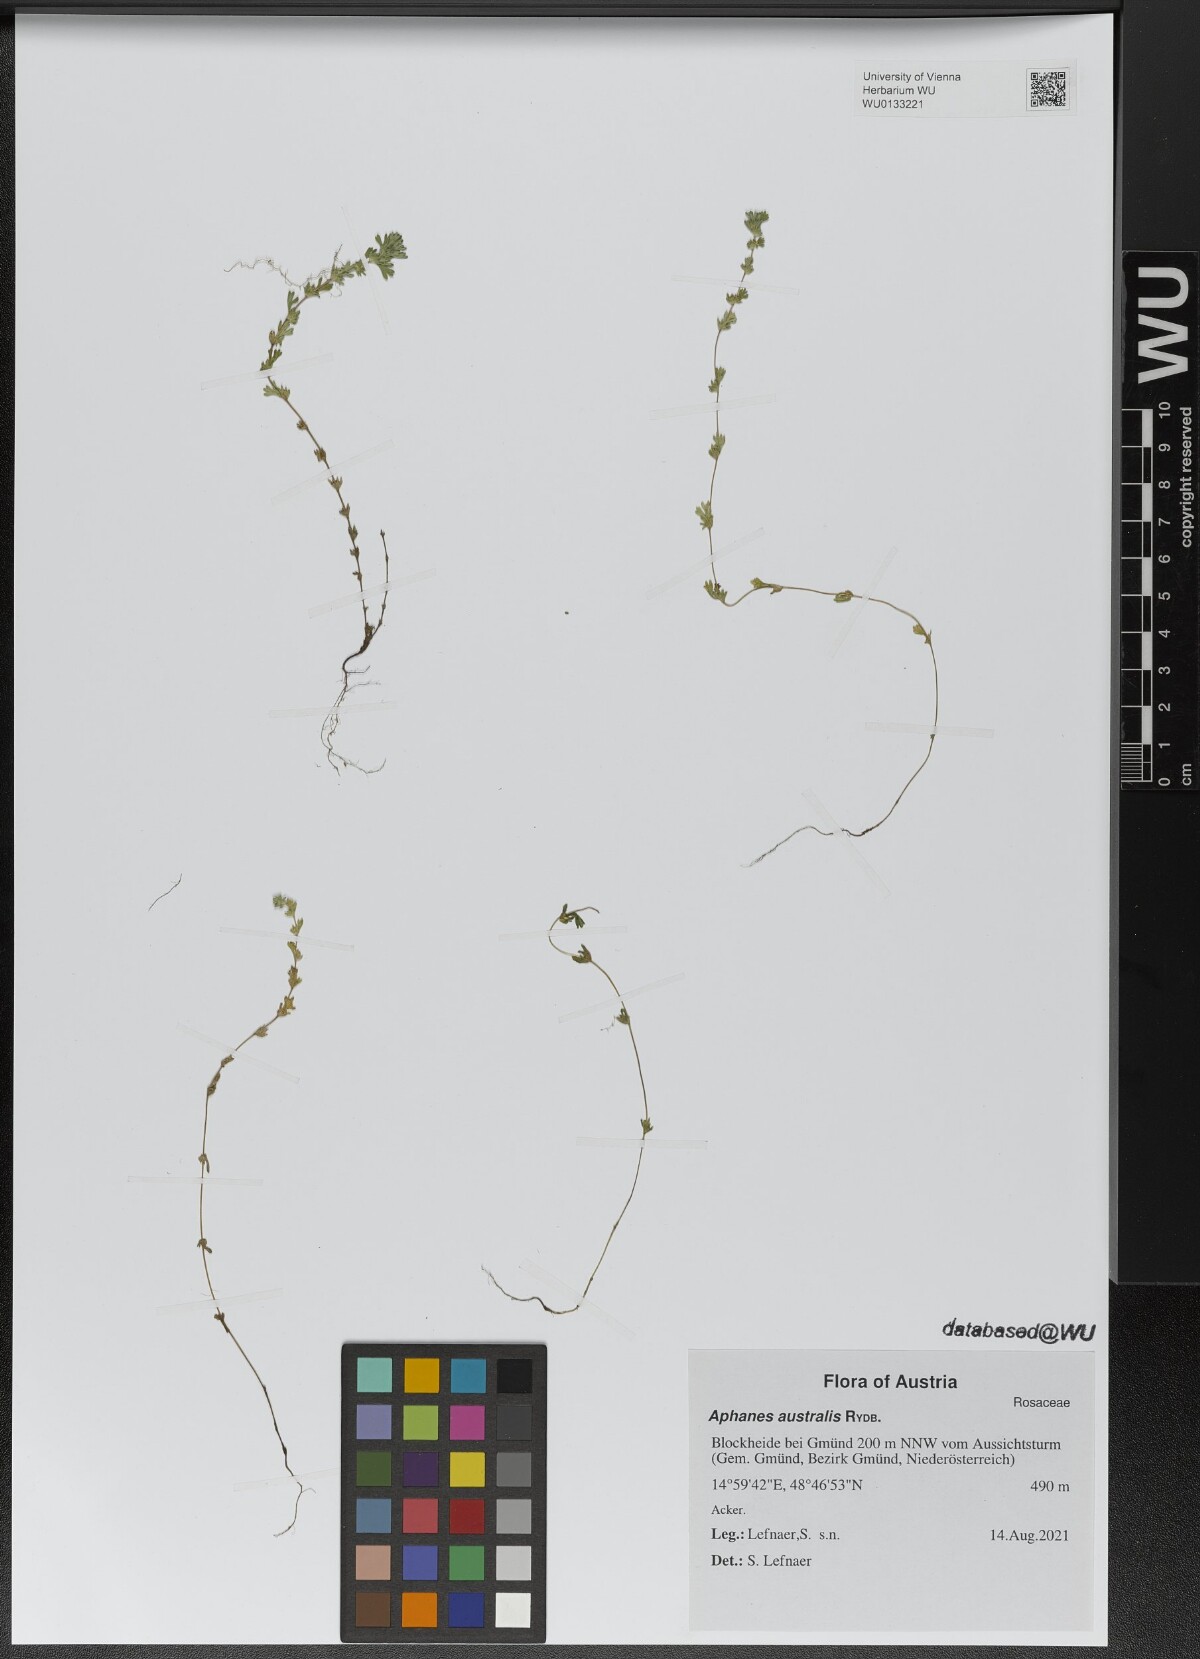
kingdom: Plantae
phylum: Tracheophyta
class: Magnoliopsida
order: Rosales
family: Rosaceae
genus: Aphanes
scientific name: Aphanes australis
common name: Slender parsley-piert
